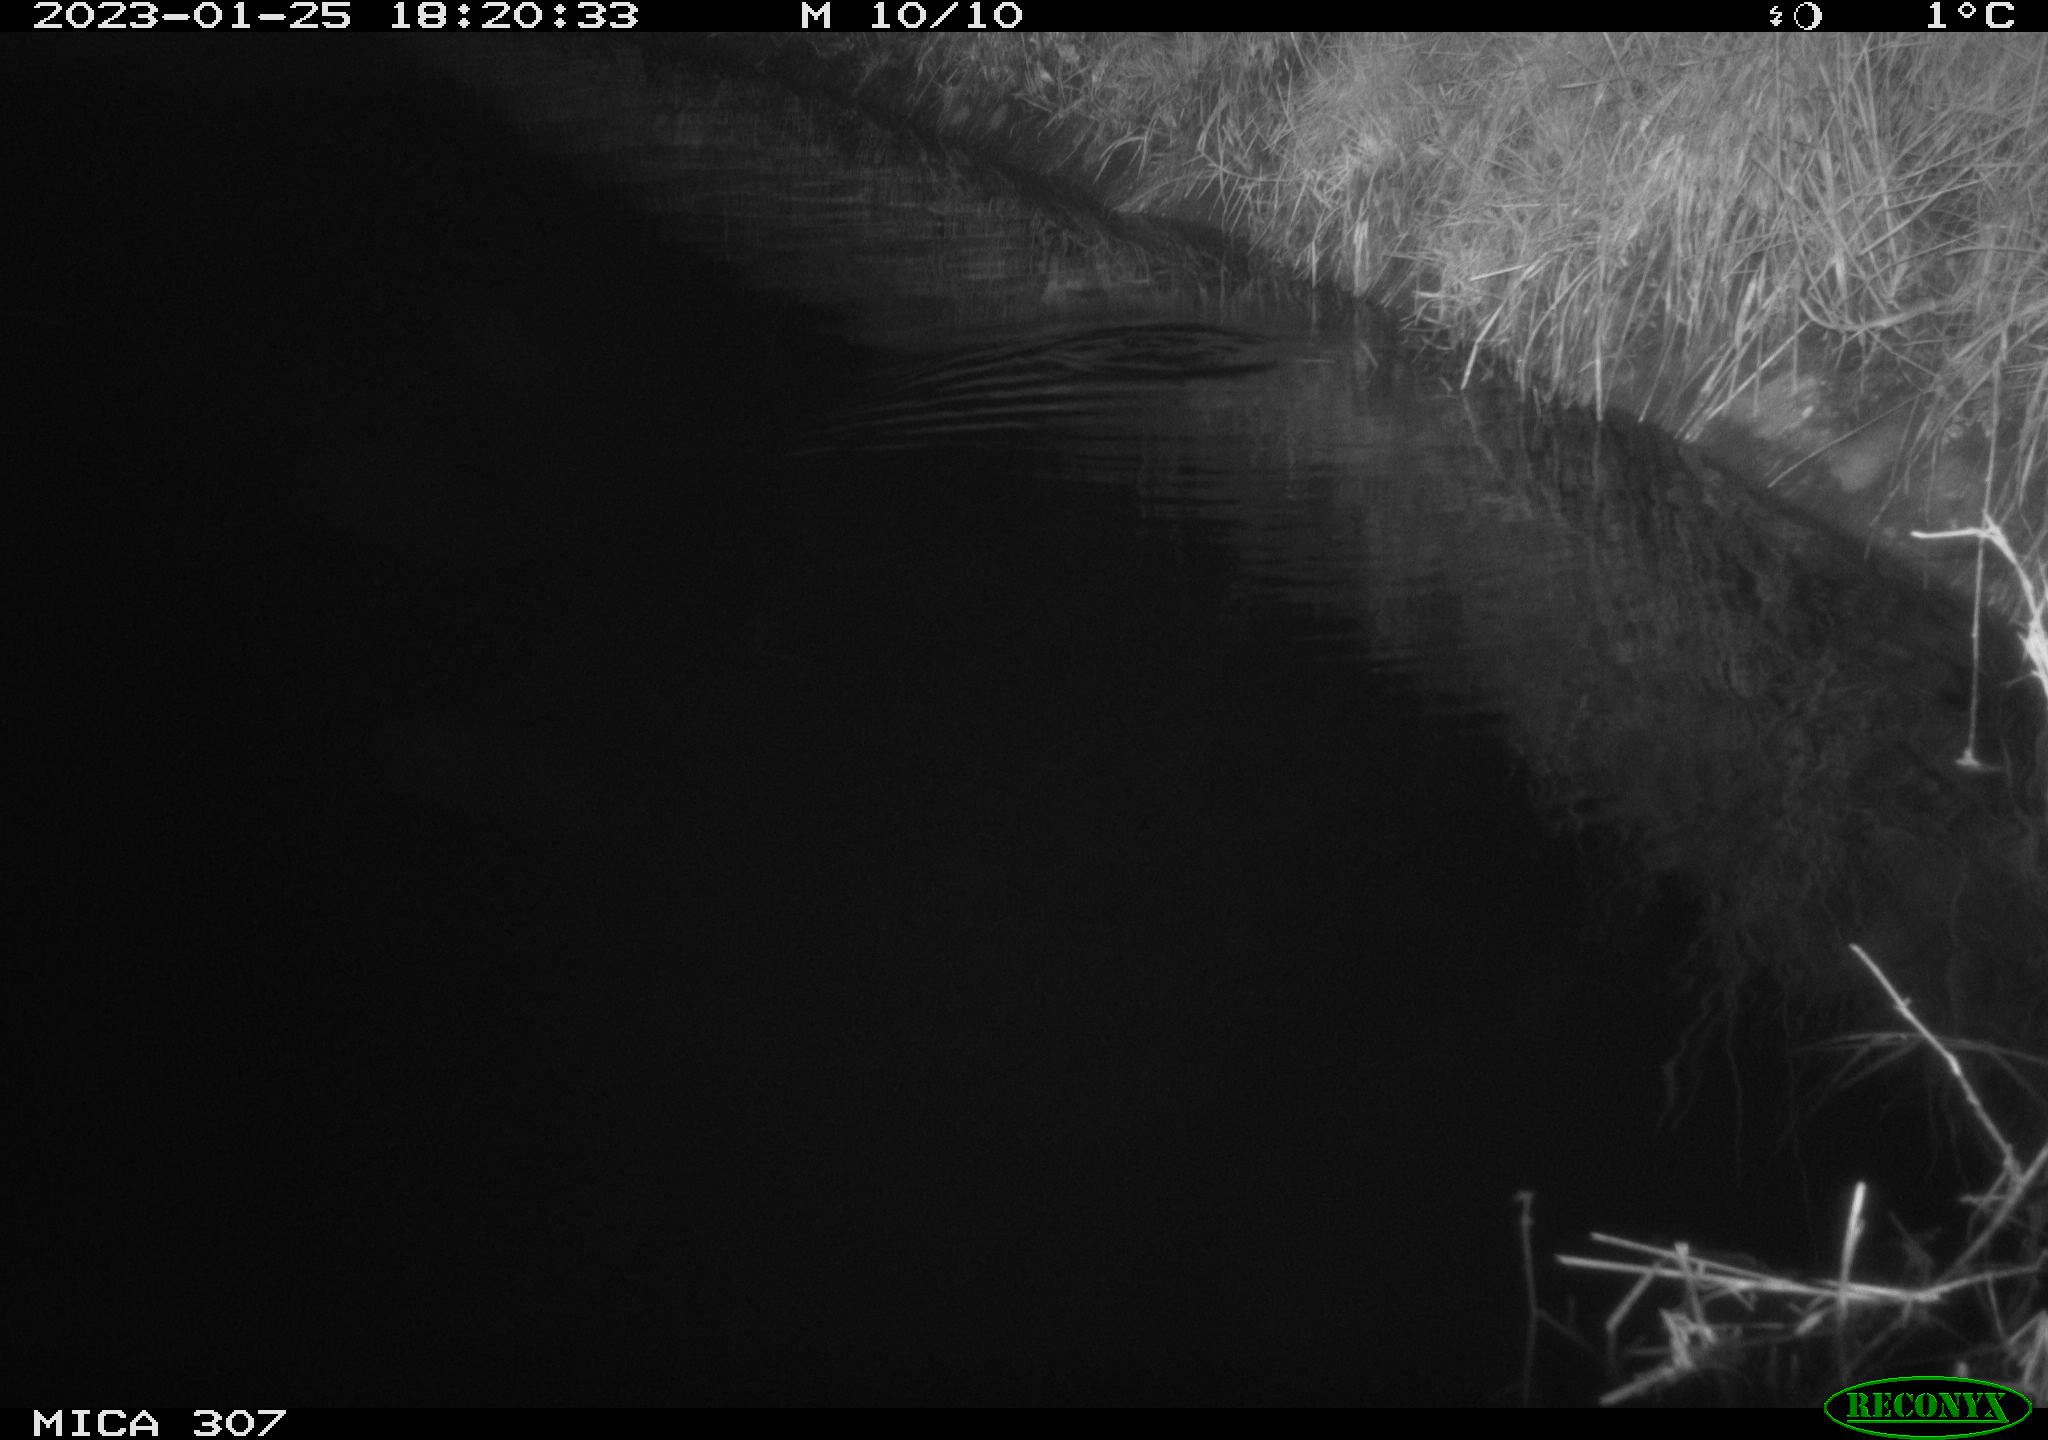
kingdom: Animalia
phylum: Chordata
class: Mammalia
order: Rodentia
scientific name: Rodentia
